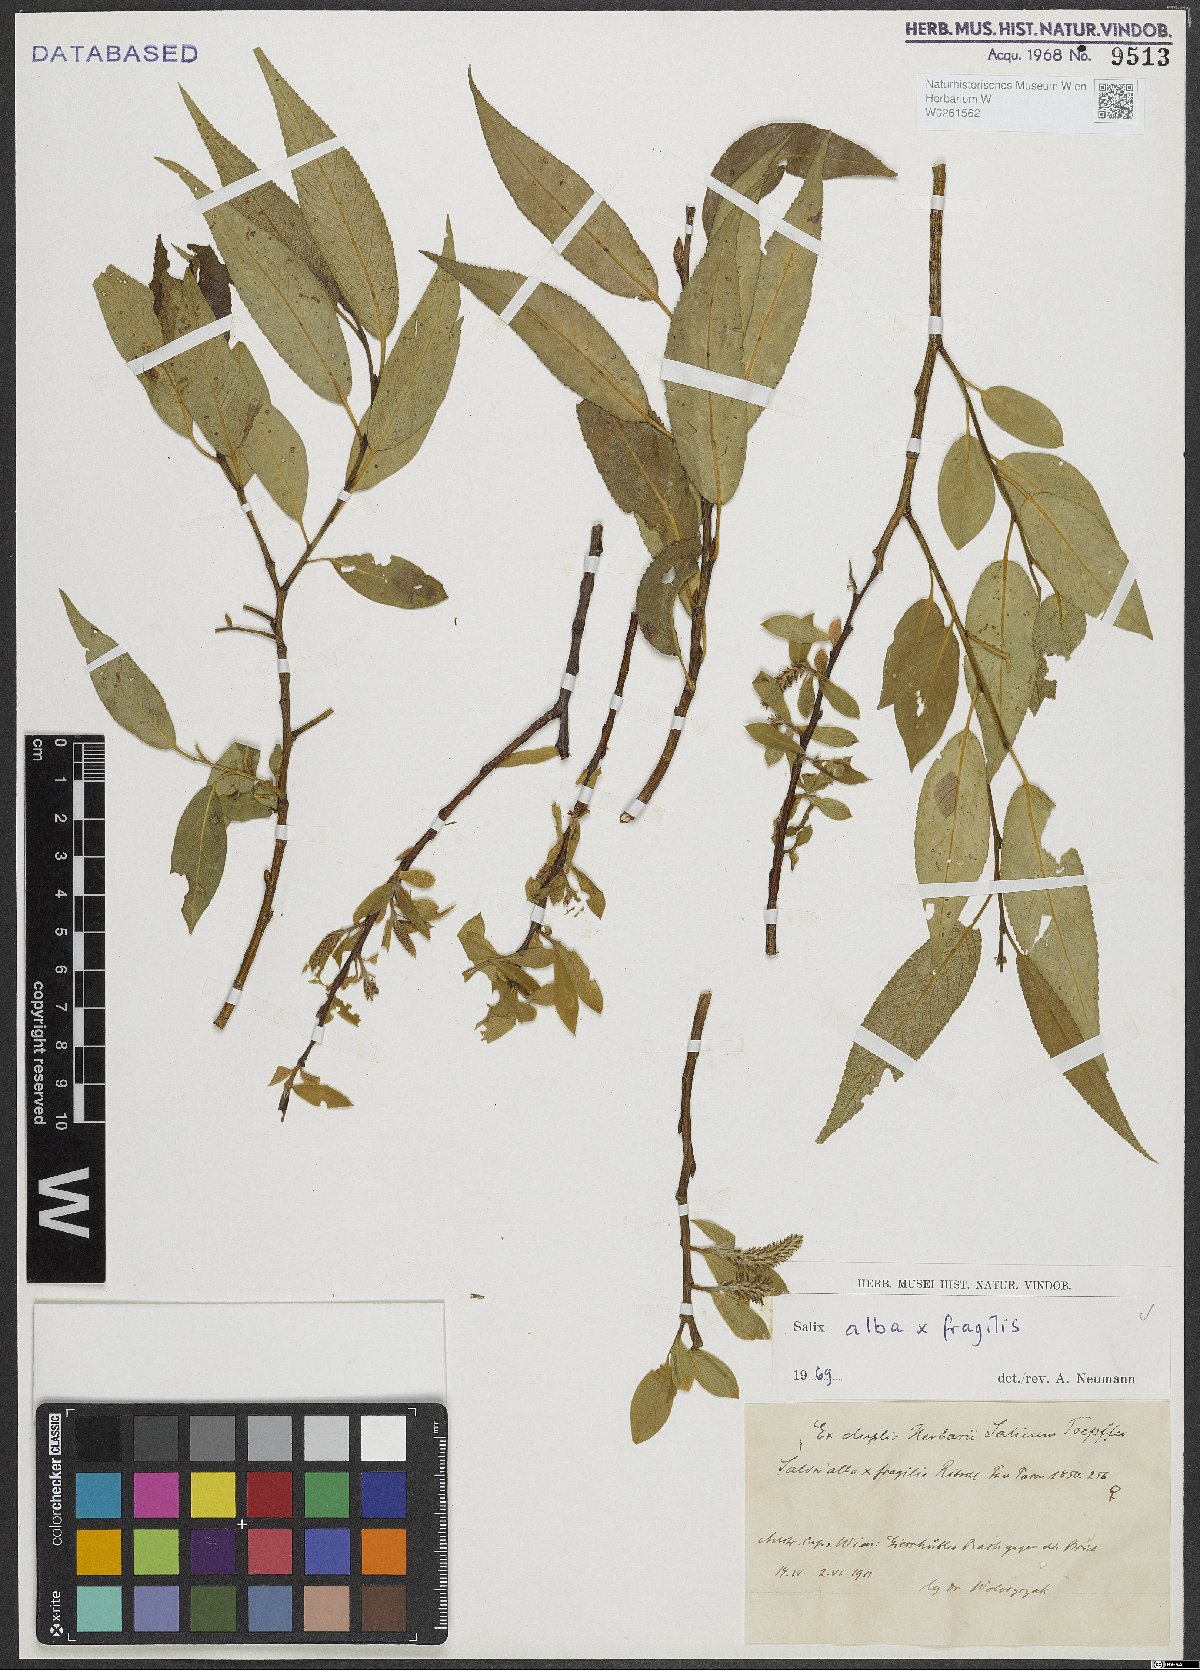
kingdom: Plantae
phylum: Tracheophyta
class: Magnoliopsida
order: Malpighiales
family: Salicaceae
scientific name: Salicaceae
